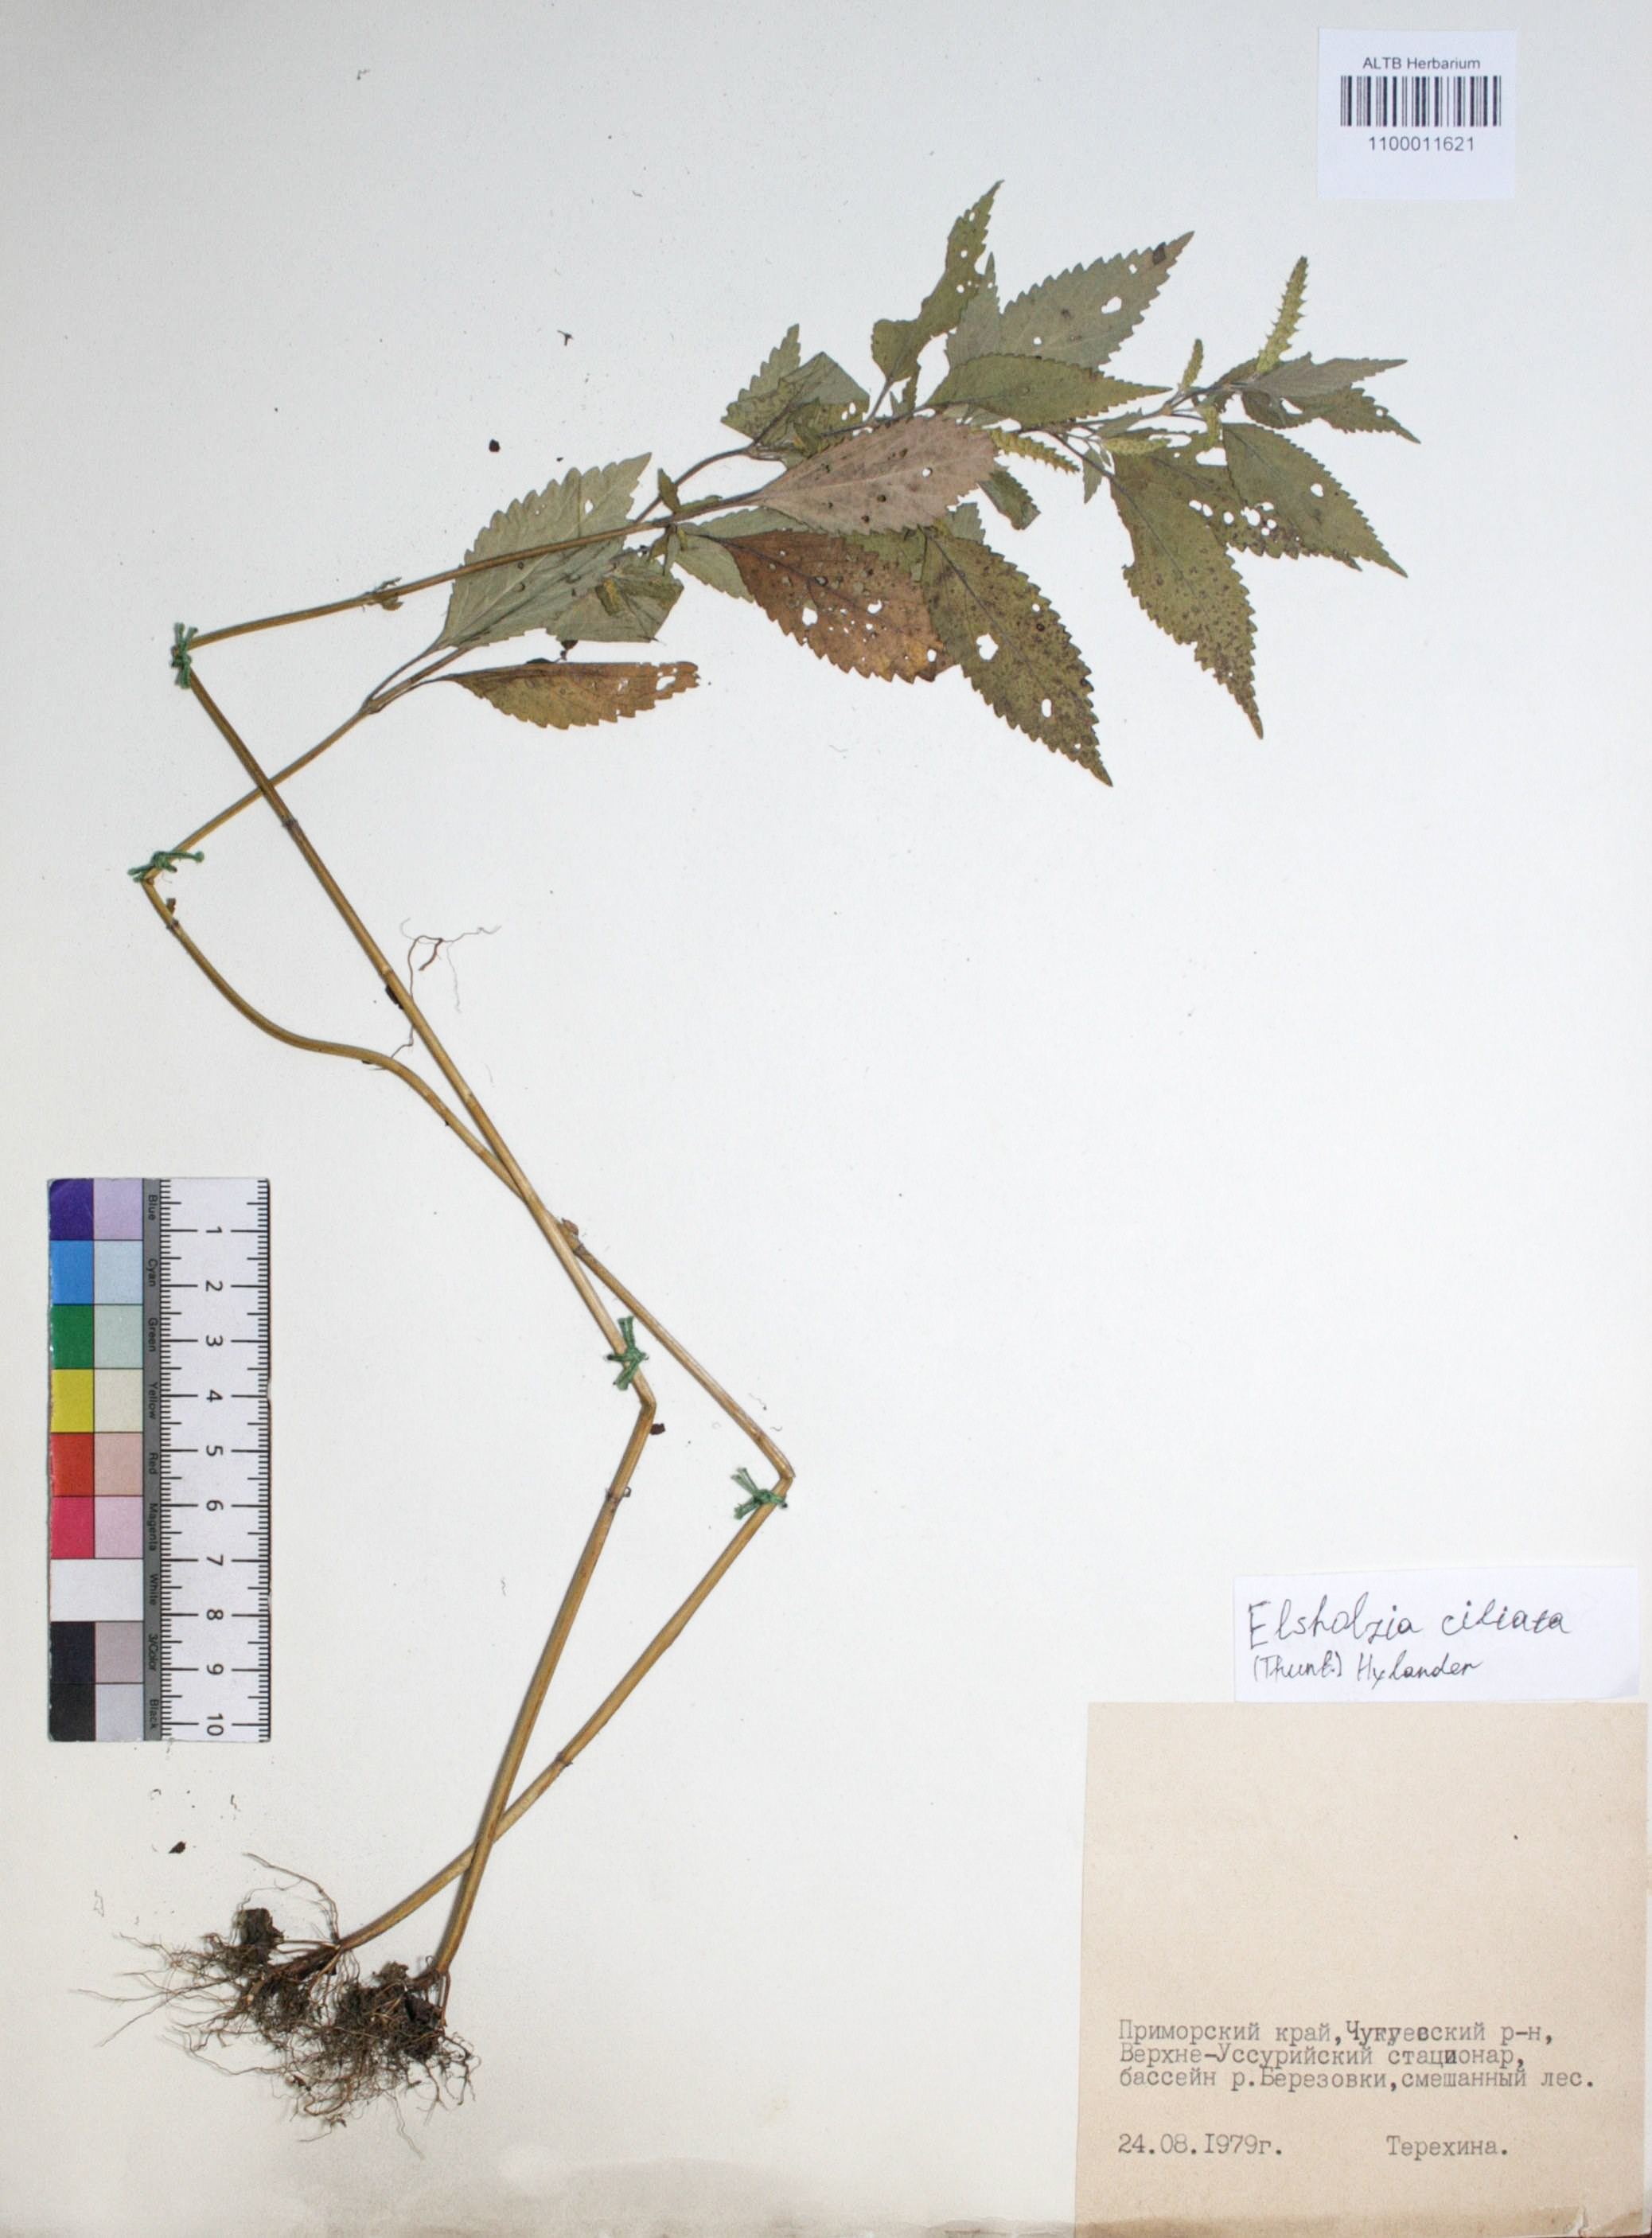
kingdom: Plantae
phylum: Tracheophyta
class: Magnoliopsida
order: Lamiales
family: Lamiaceae
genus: Elsholtzia
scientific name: Elsholtzia ciliata
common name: Ciliate elsholtzia
